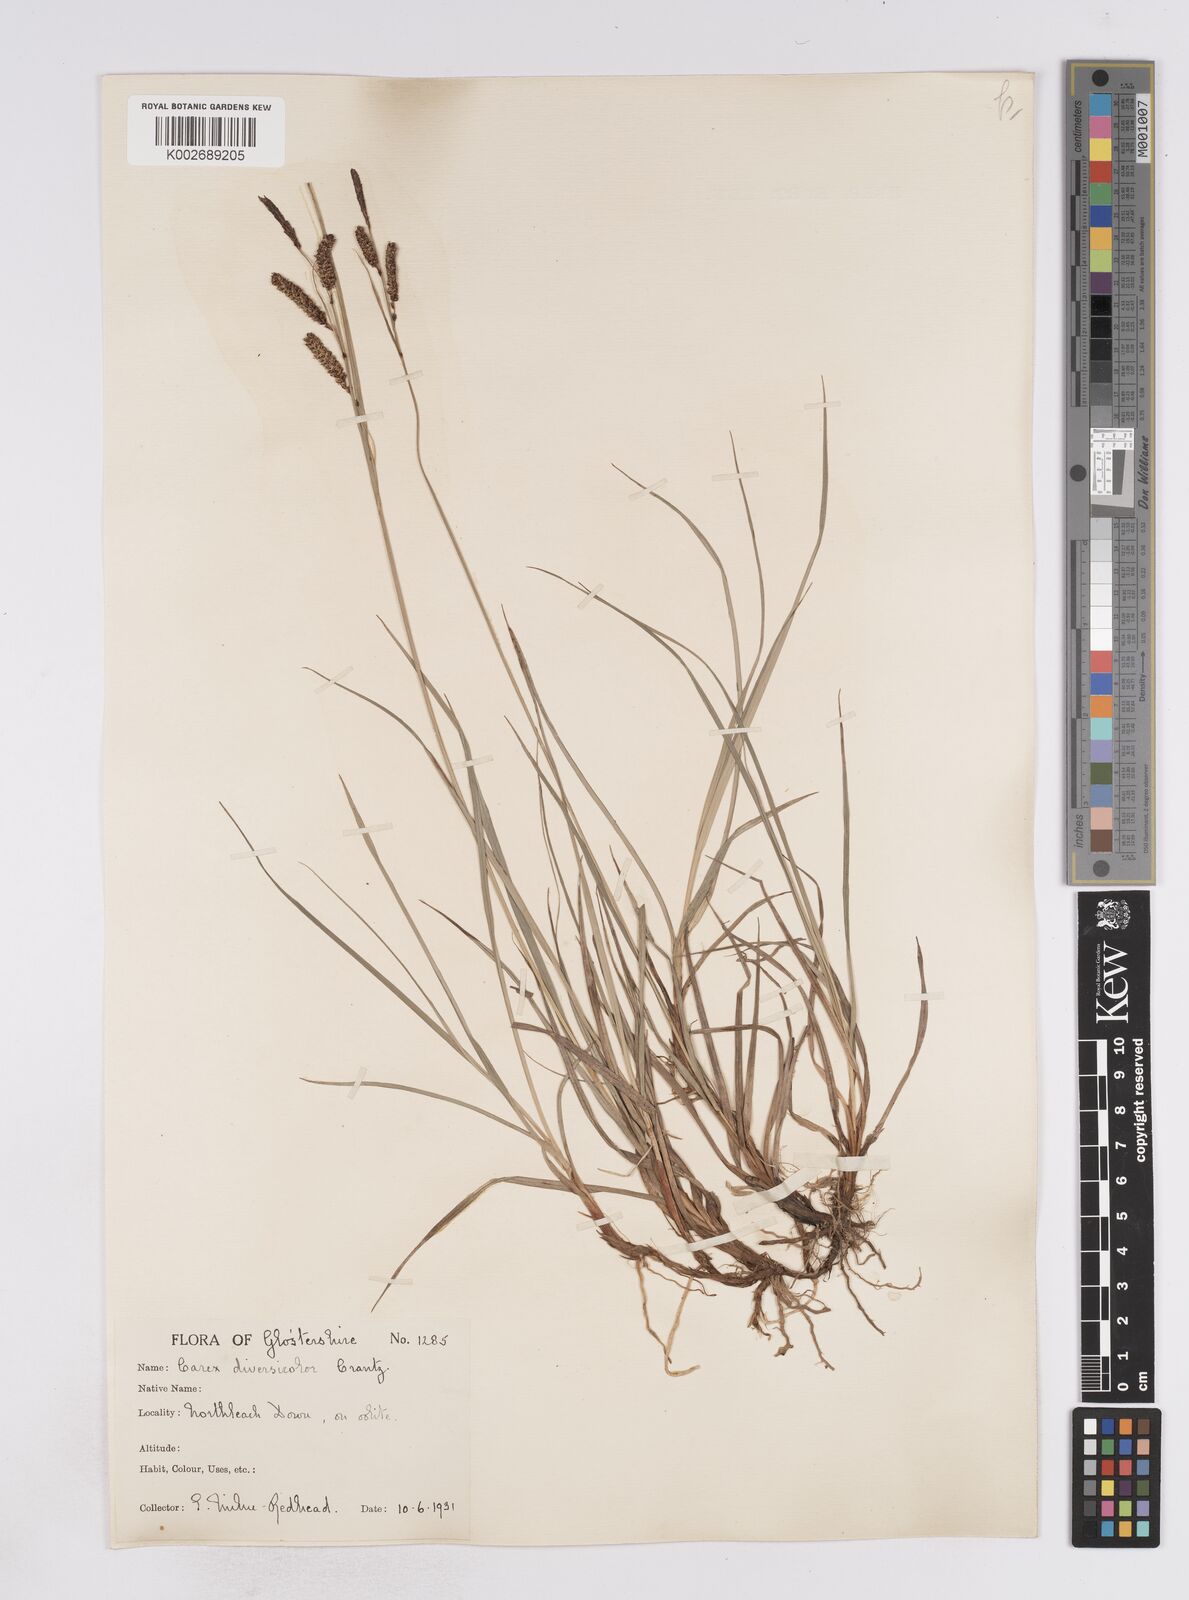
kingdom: Plantae
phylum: Tracheophyta
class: Liliopsida
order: Poales
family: Cyperaceae
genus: Carex
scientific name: Carex flacca
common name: Glaucous sedge
